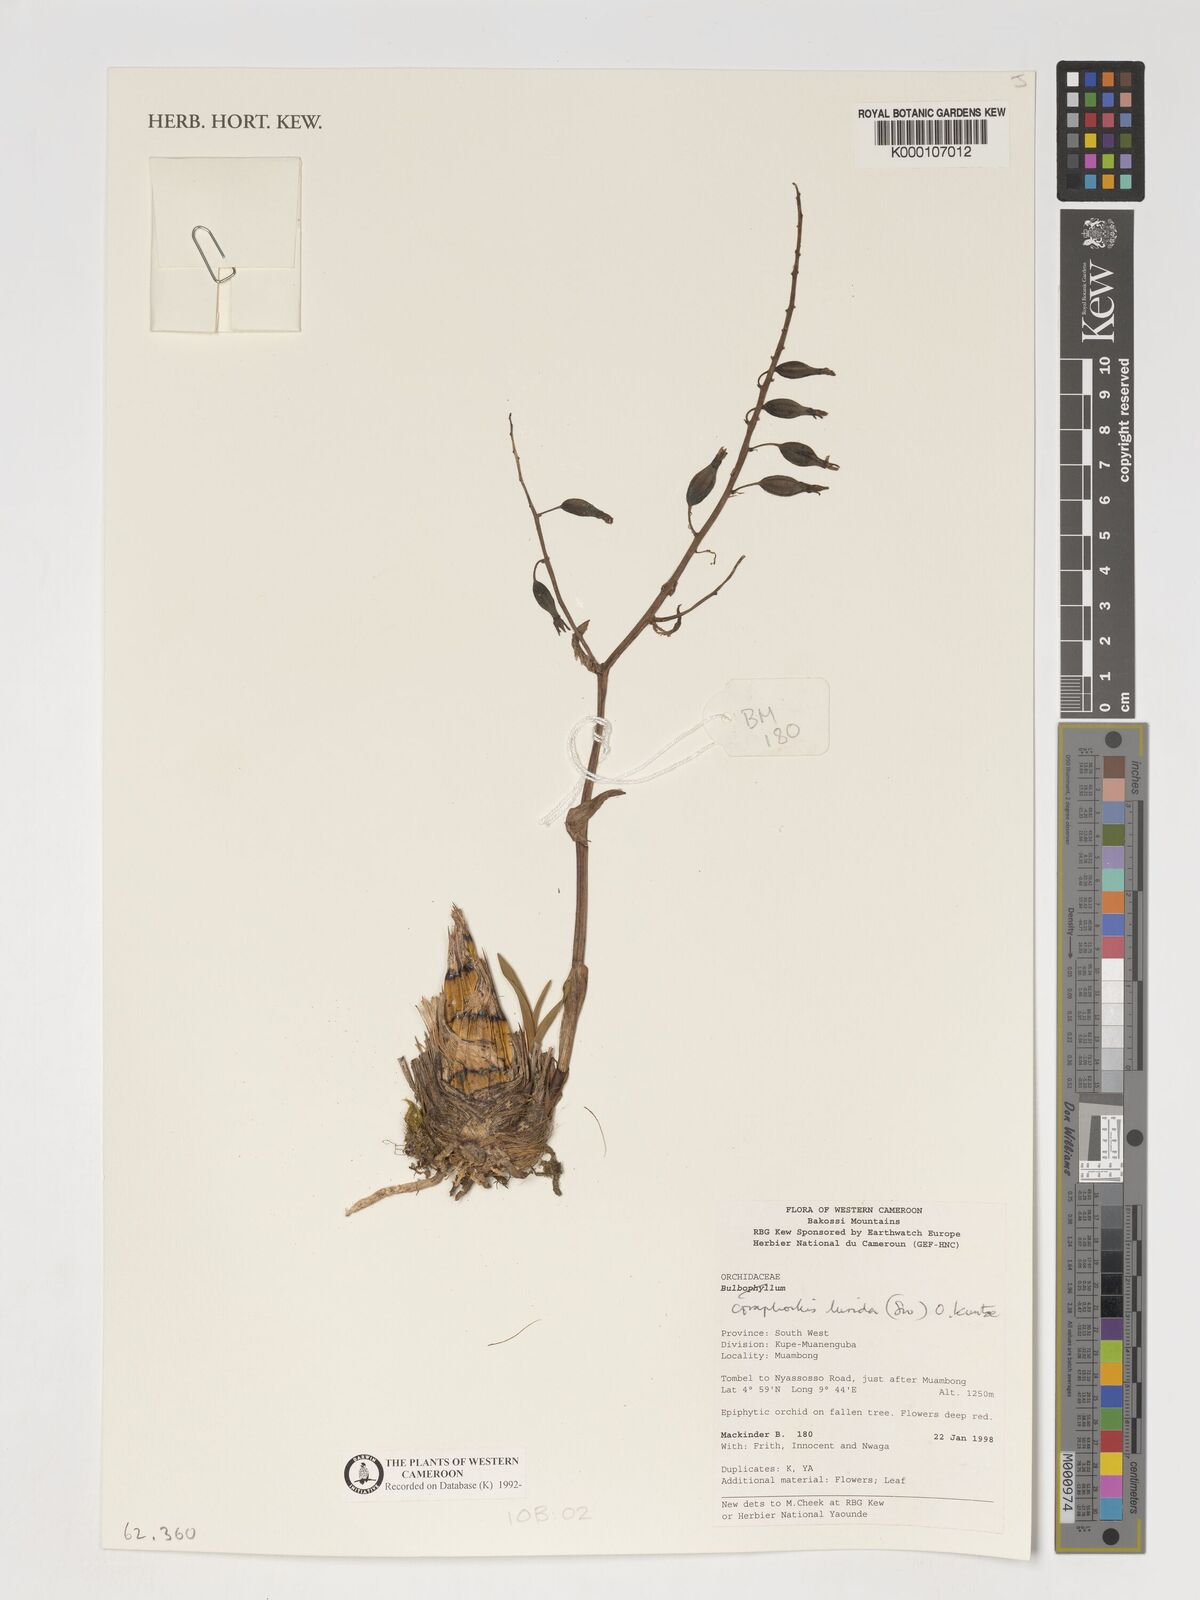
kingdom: Plantae
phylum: Tracheophyta
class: Liliopsida
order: Asparagales
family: Orchidaceae
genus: Graphorkis
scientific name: Graphorkis lurida
